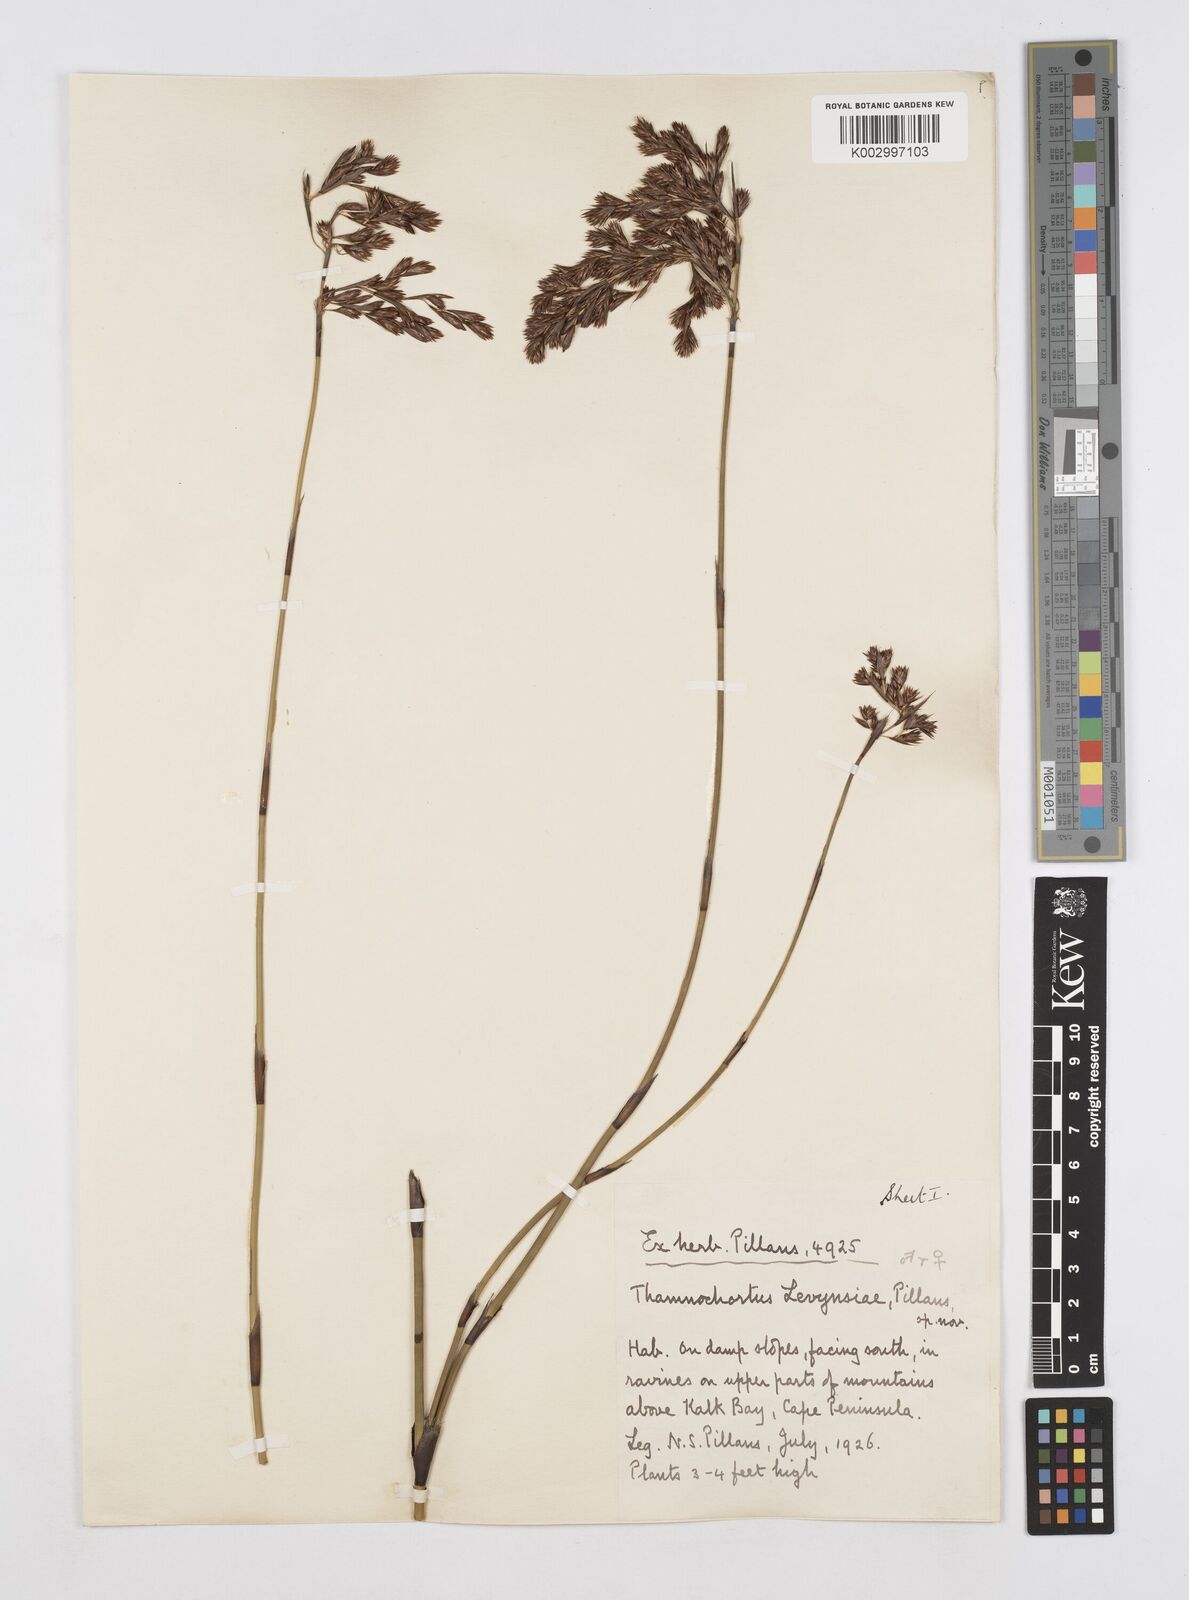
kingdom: Plantae
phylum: Tracheophyta
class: Liliopsida
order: Poales
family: Restionaceae
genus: Thamnochortus
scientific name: Thamnochortus levynsiae
